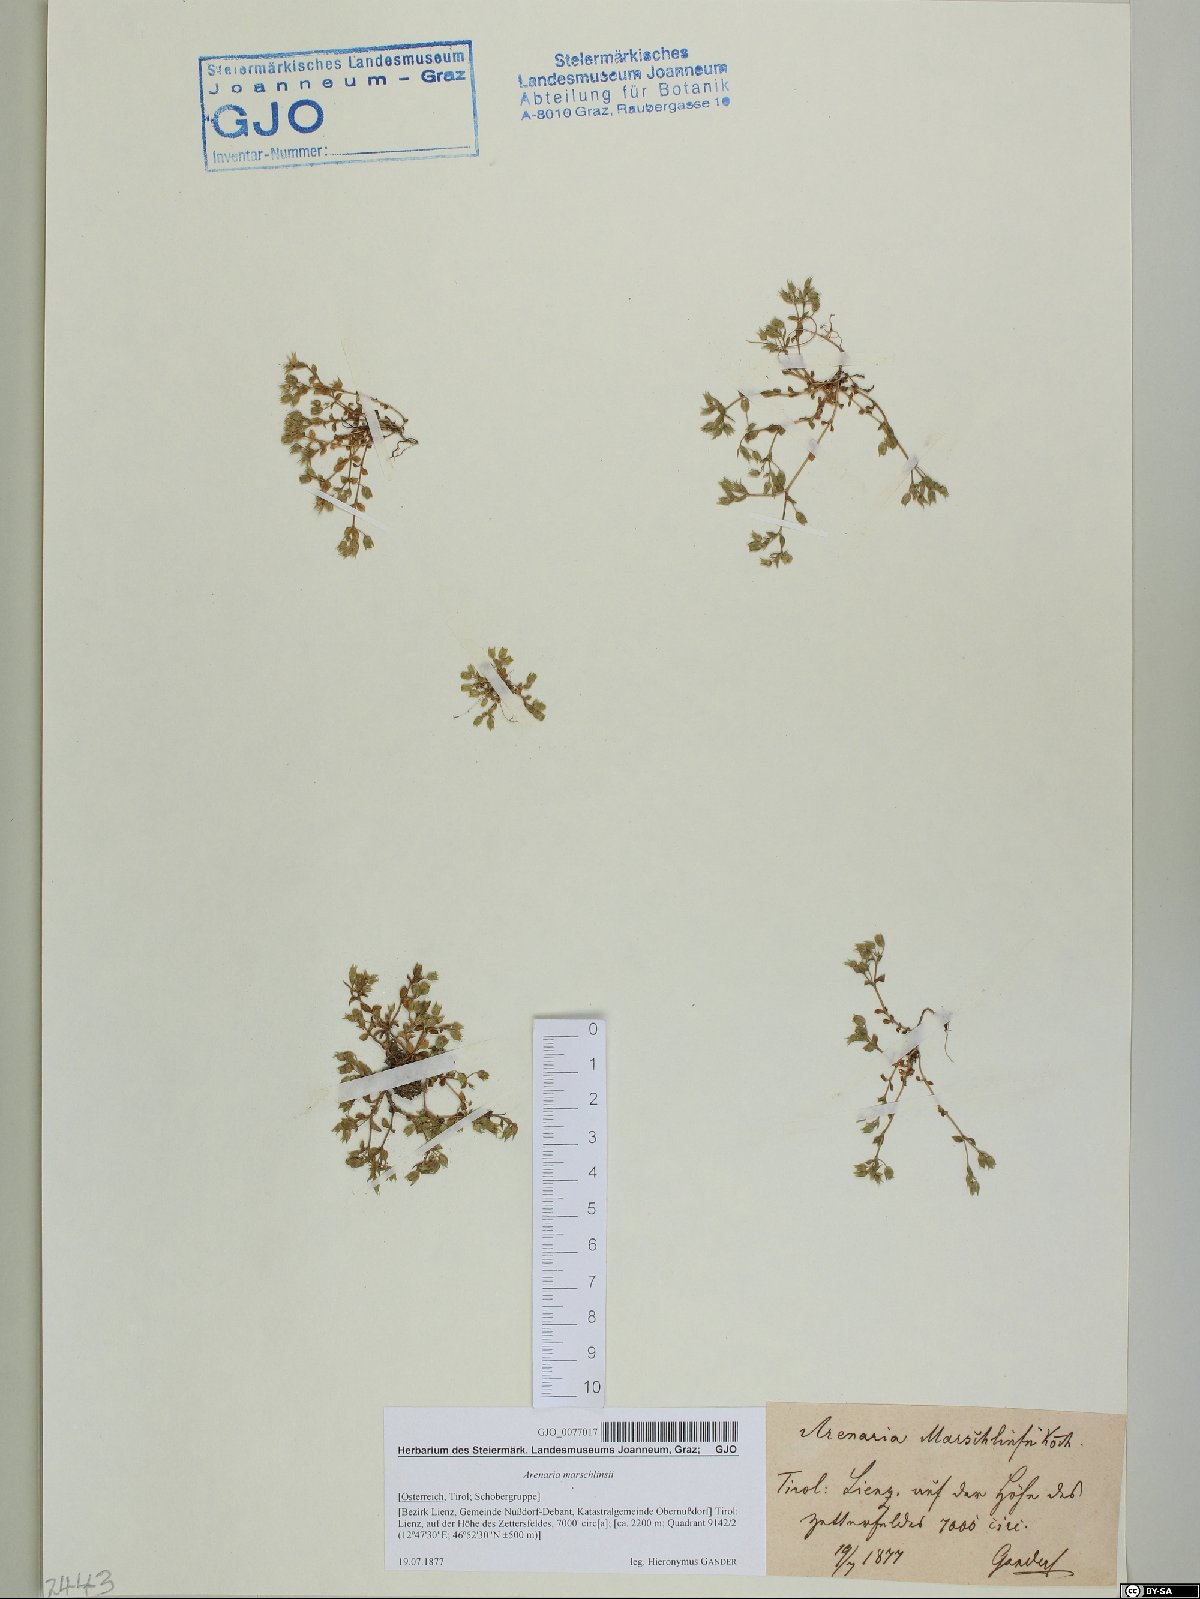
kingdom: Plantae
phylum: Tracheophyta
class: Magnoliopsida
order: Caryophyllales
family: Caryophyllaceae
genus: Arenaria
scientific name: Arenaria marschlinsii
